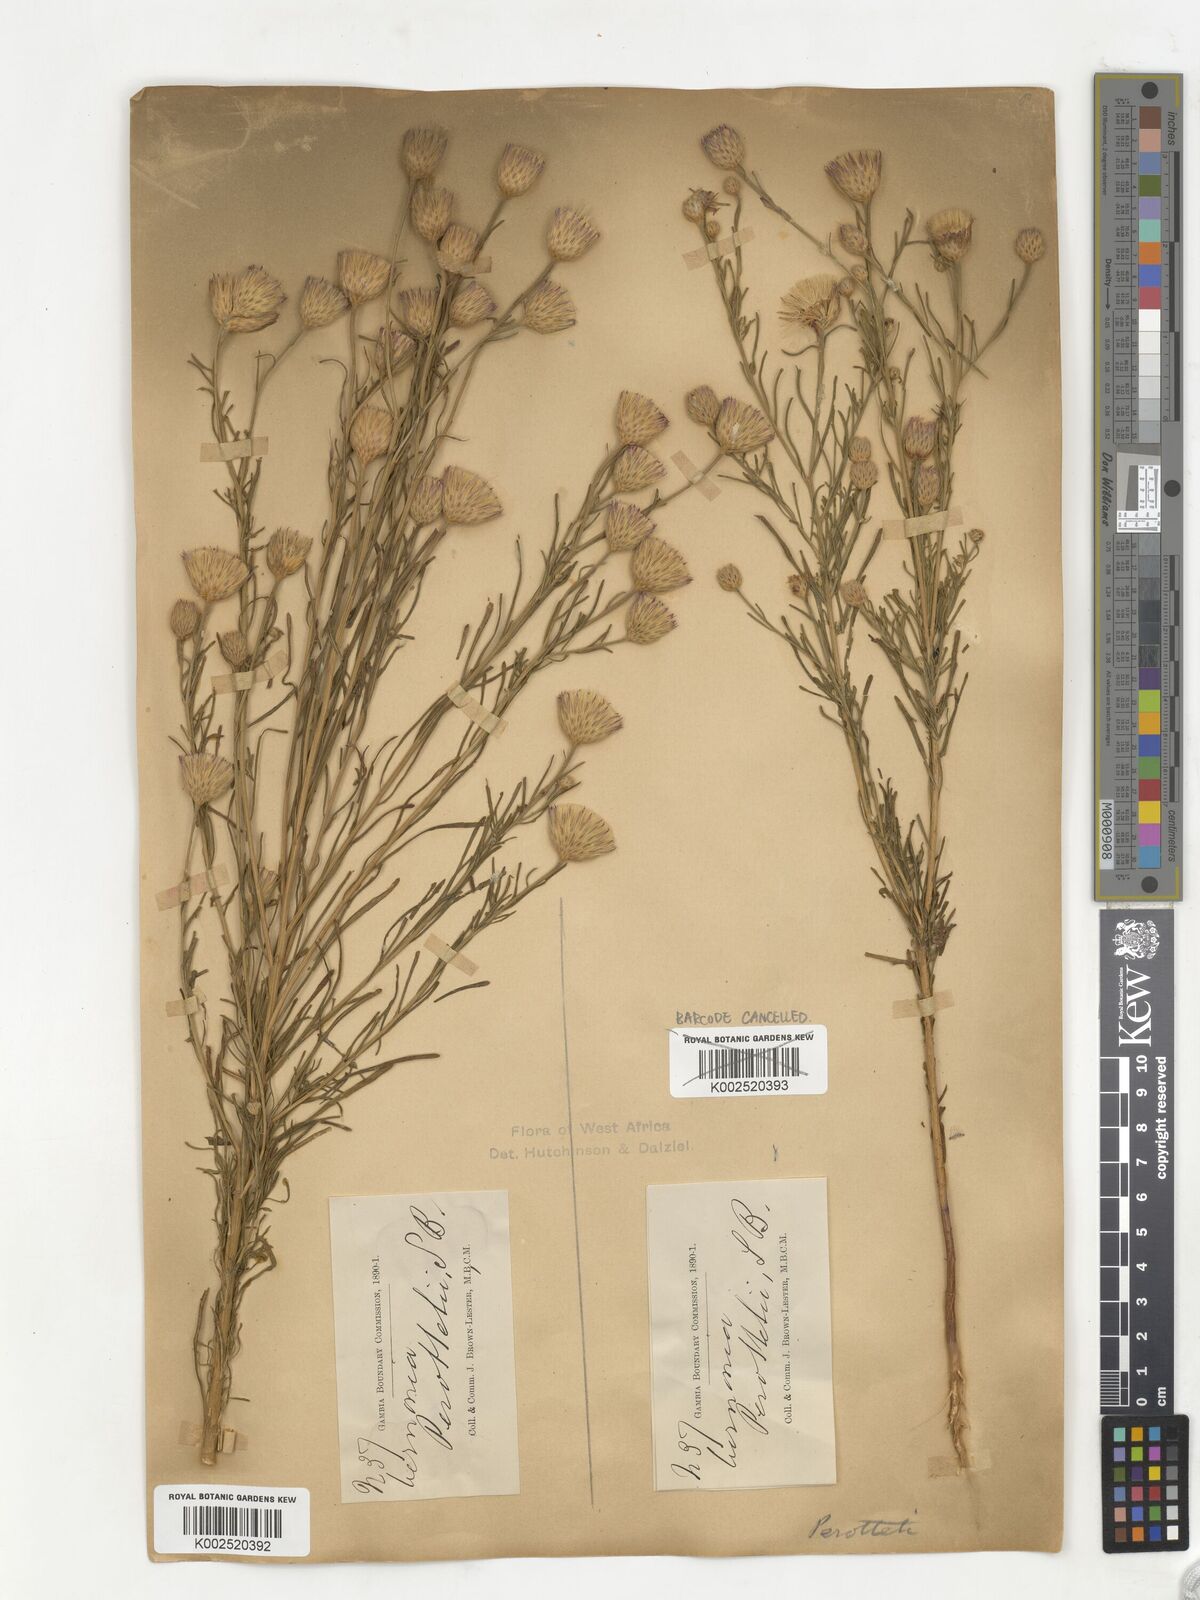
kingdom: Plantae
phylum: Tracheophyta
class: Magnoliopsida
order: Asterales
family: Asteraceae
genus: Crystallopollen
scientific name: Crystallopollen serratuloides
